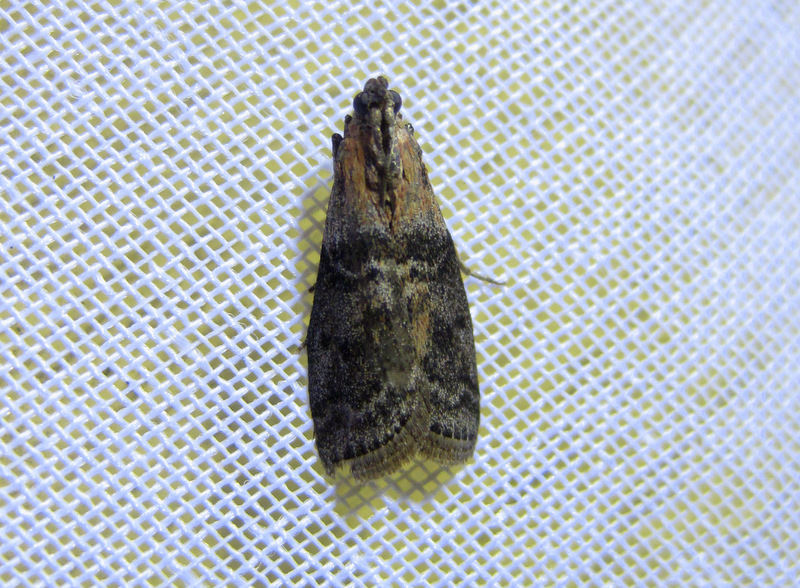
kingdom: Animalia
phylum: Arthropoda
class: Insecta
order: Lepidoptera
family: Pyralidae
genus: Sciota
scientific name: Sciota adelphella
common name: Willow knot-horn
